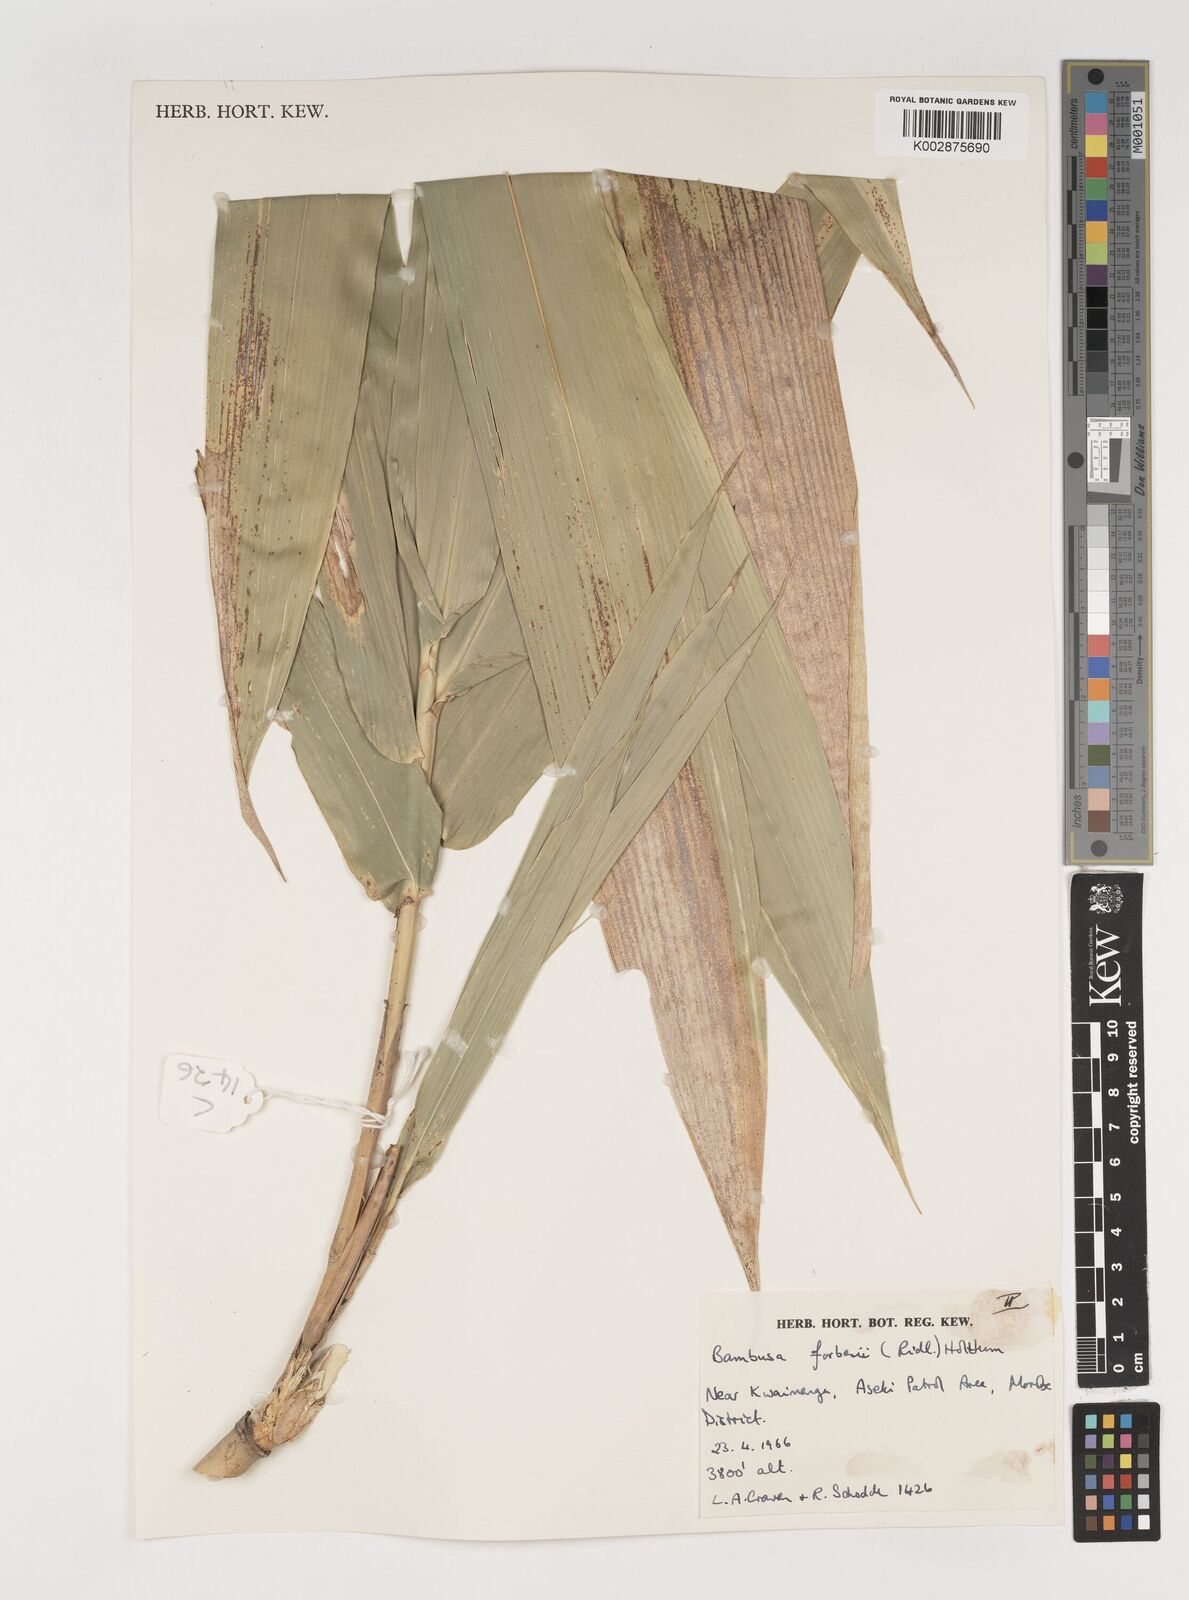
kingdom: Plantae
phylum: Tracheophyta
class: Liliopsida
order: Poales
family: Poaceae
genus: Neololeba
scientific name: Neololeba atra
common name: Cape bamboo
